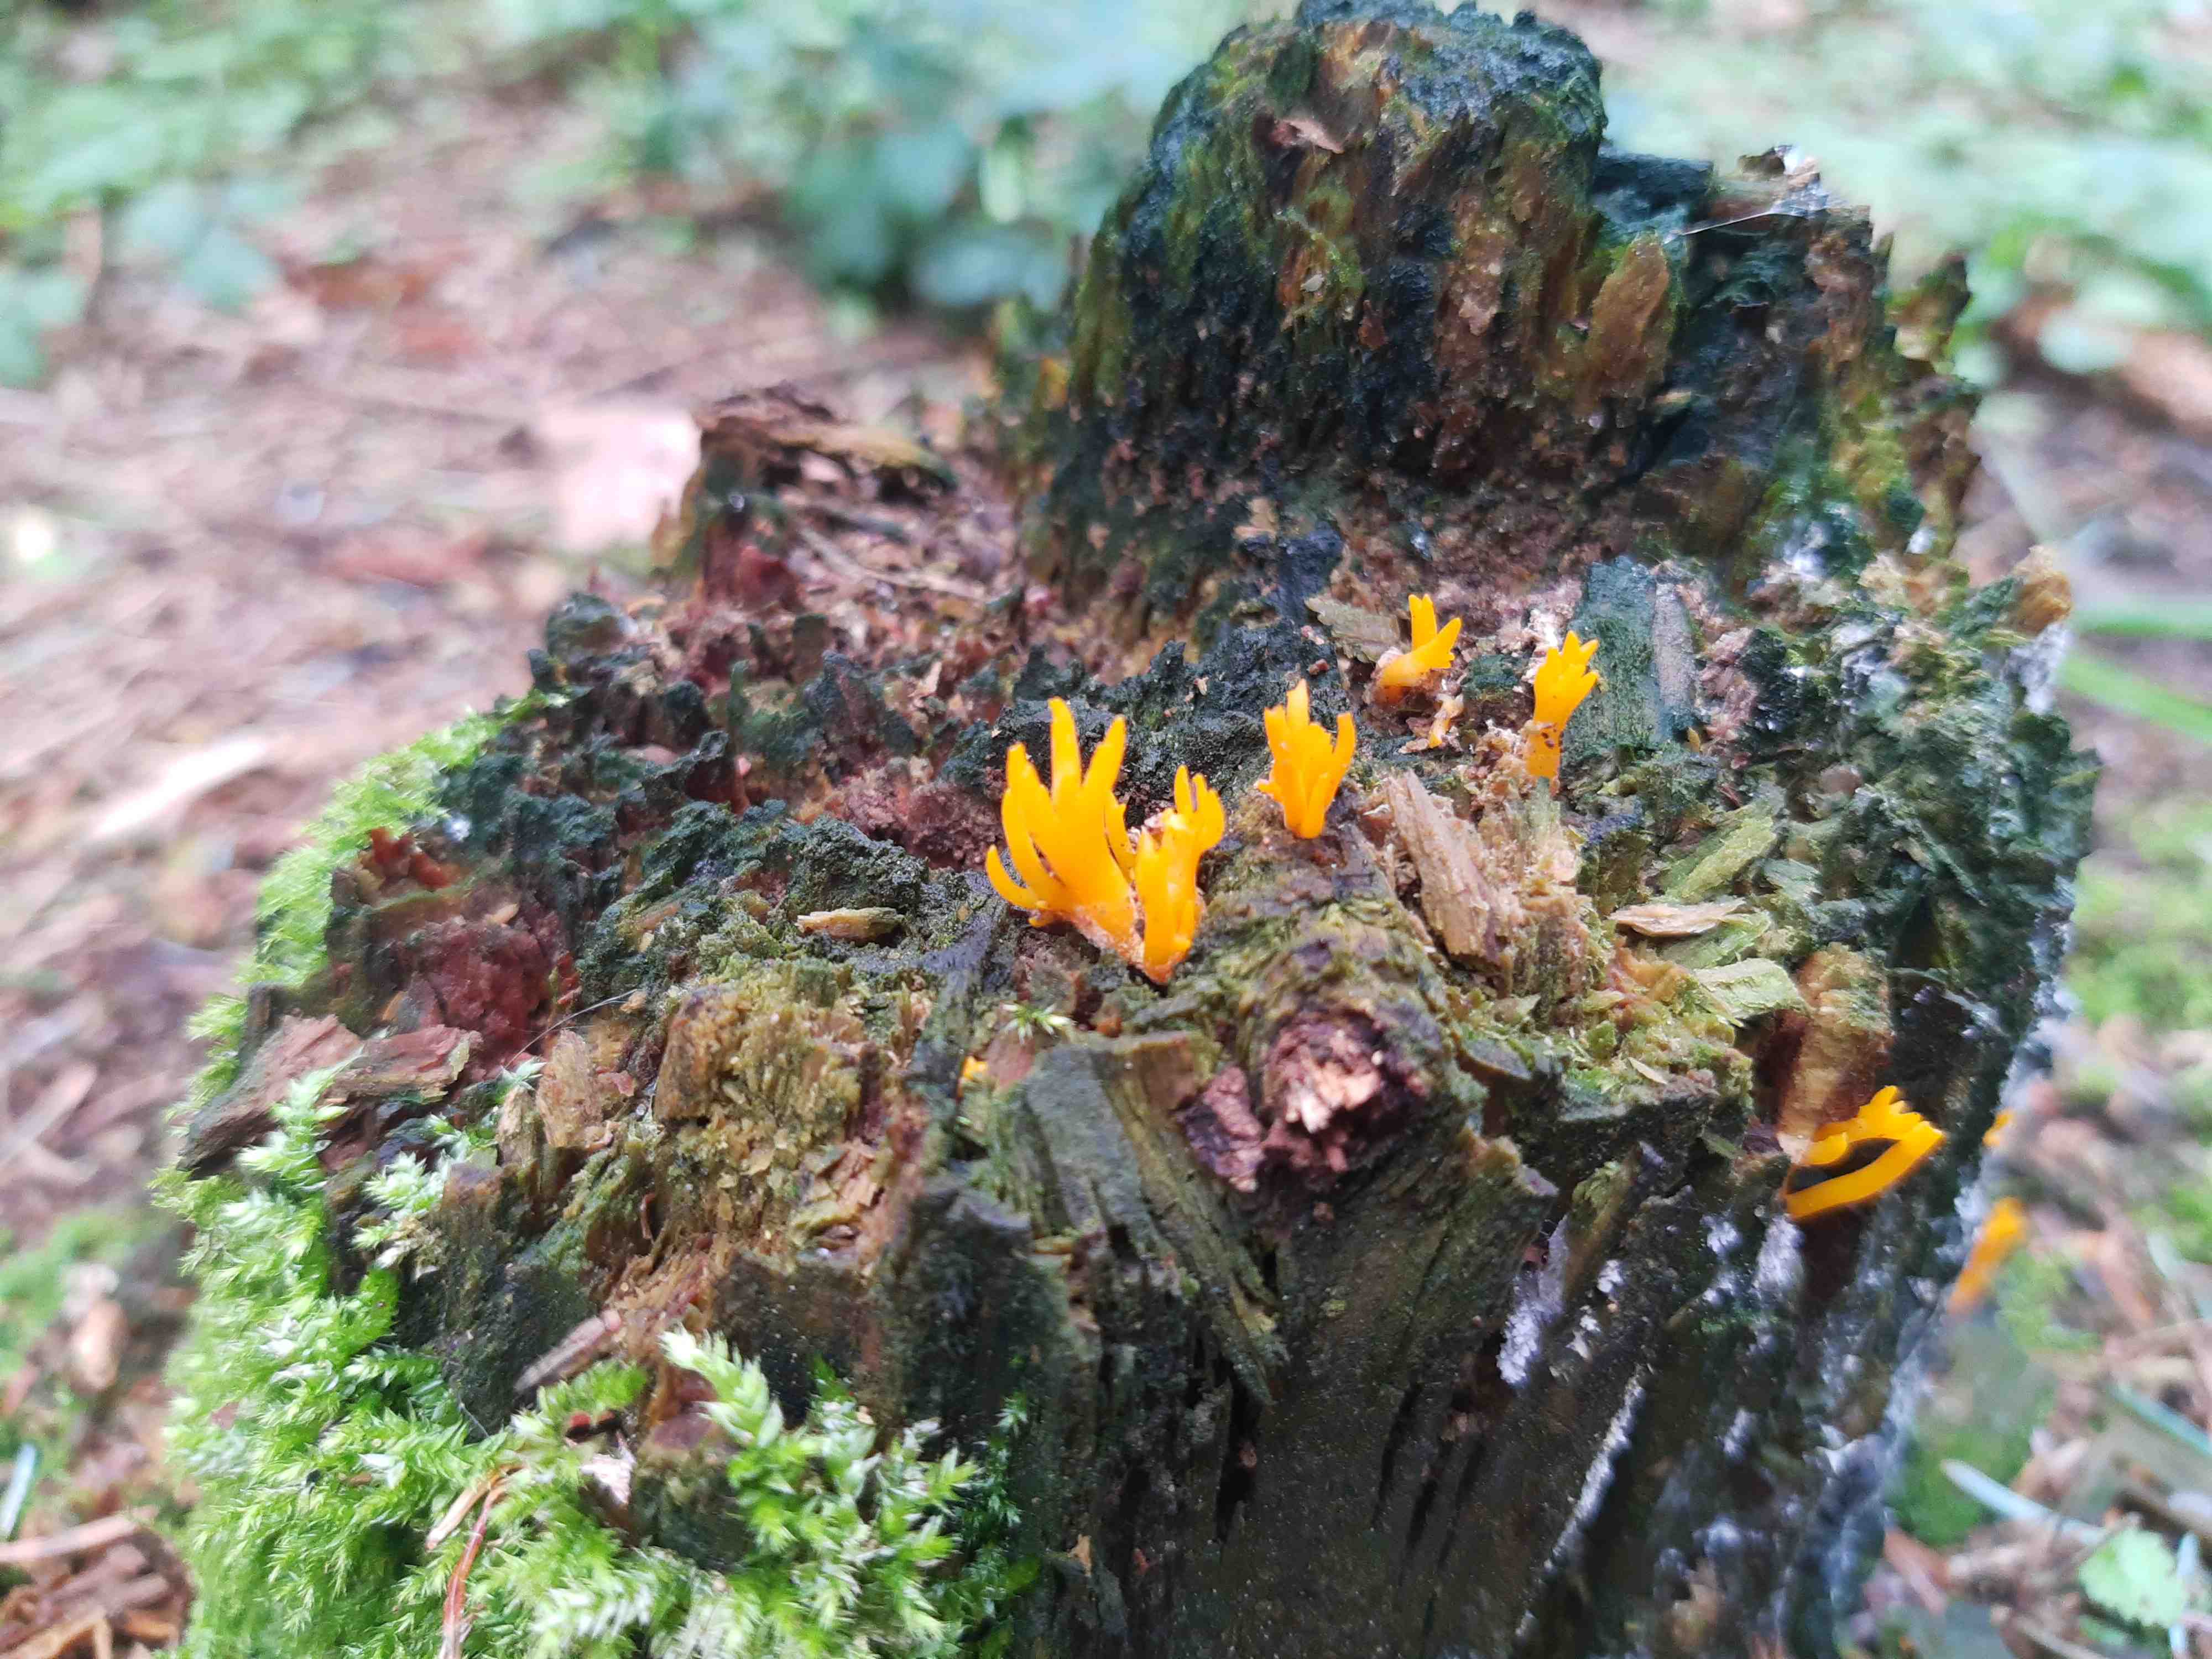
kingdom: Fungi
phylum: Basidiomycota
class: Dacrymycetes
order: Dacrymycetales
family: Dacrymycetaceae
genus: Calocera
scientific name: Calocera viscosa
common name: almindelig guldgaffel
